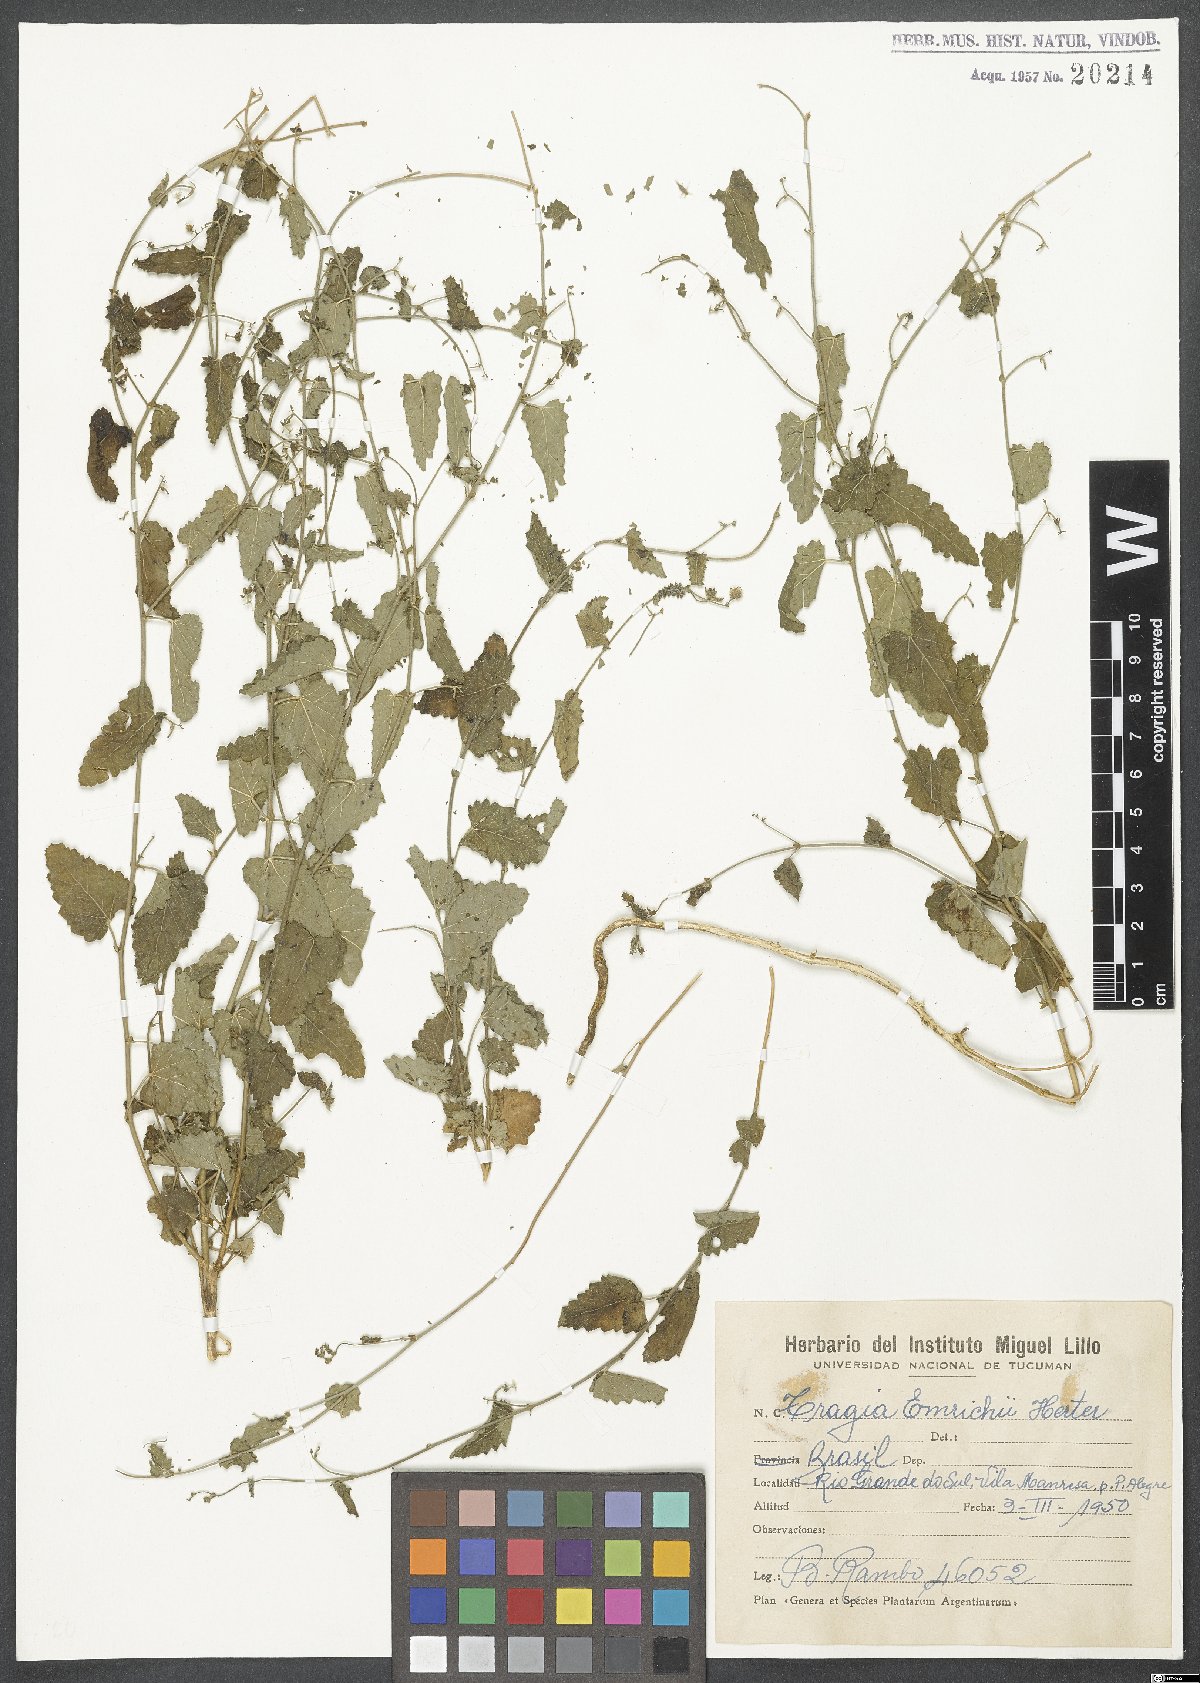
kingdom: Plantae
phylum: Tracheophyta
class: Magnoliopsida
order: Malpighiales
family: Euphorbiaceae
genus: Tragia
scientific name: Tragia bahiensis
